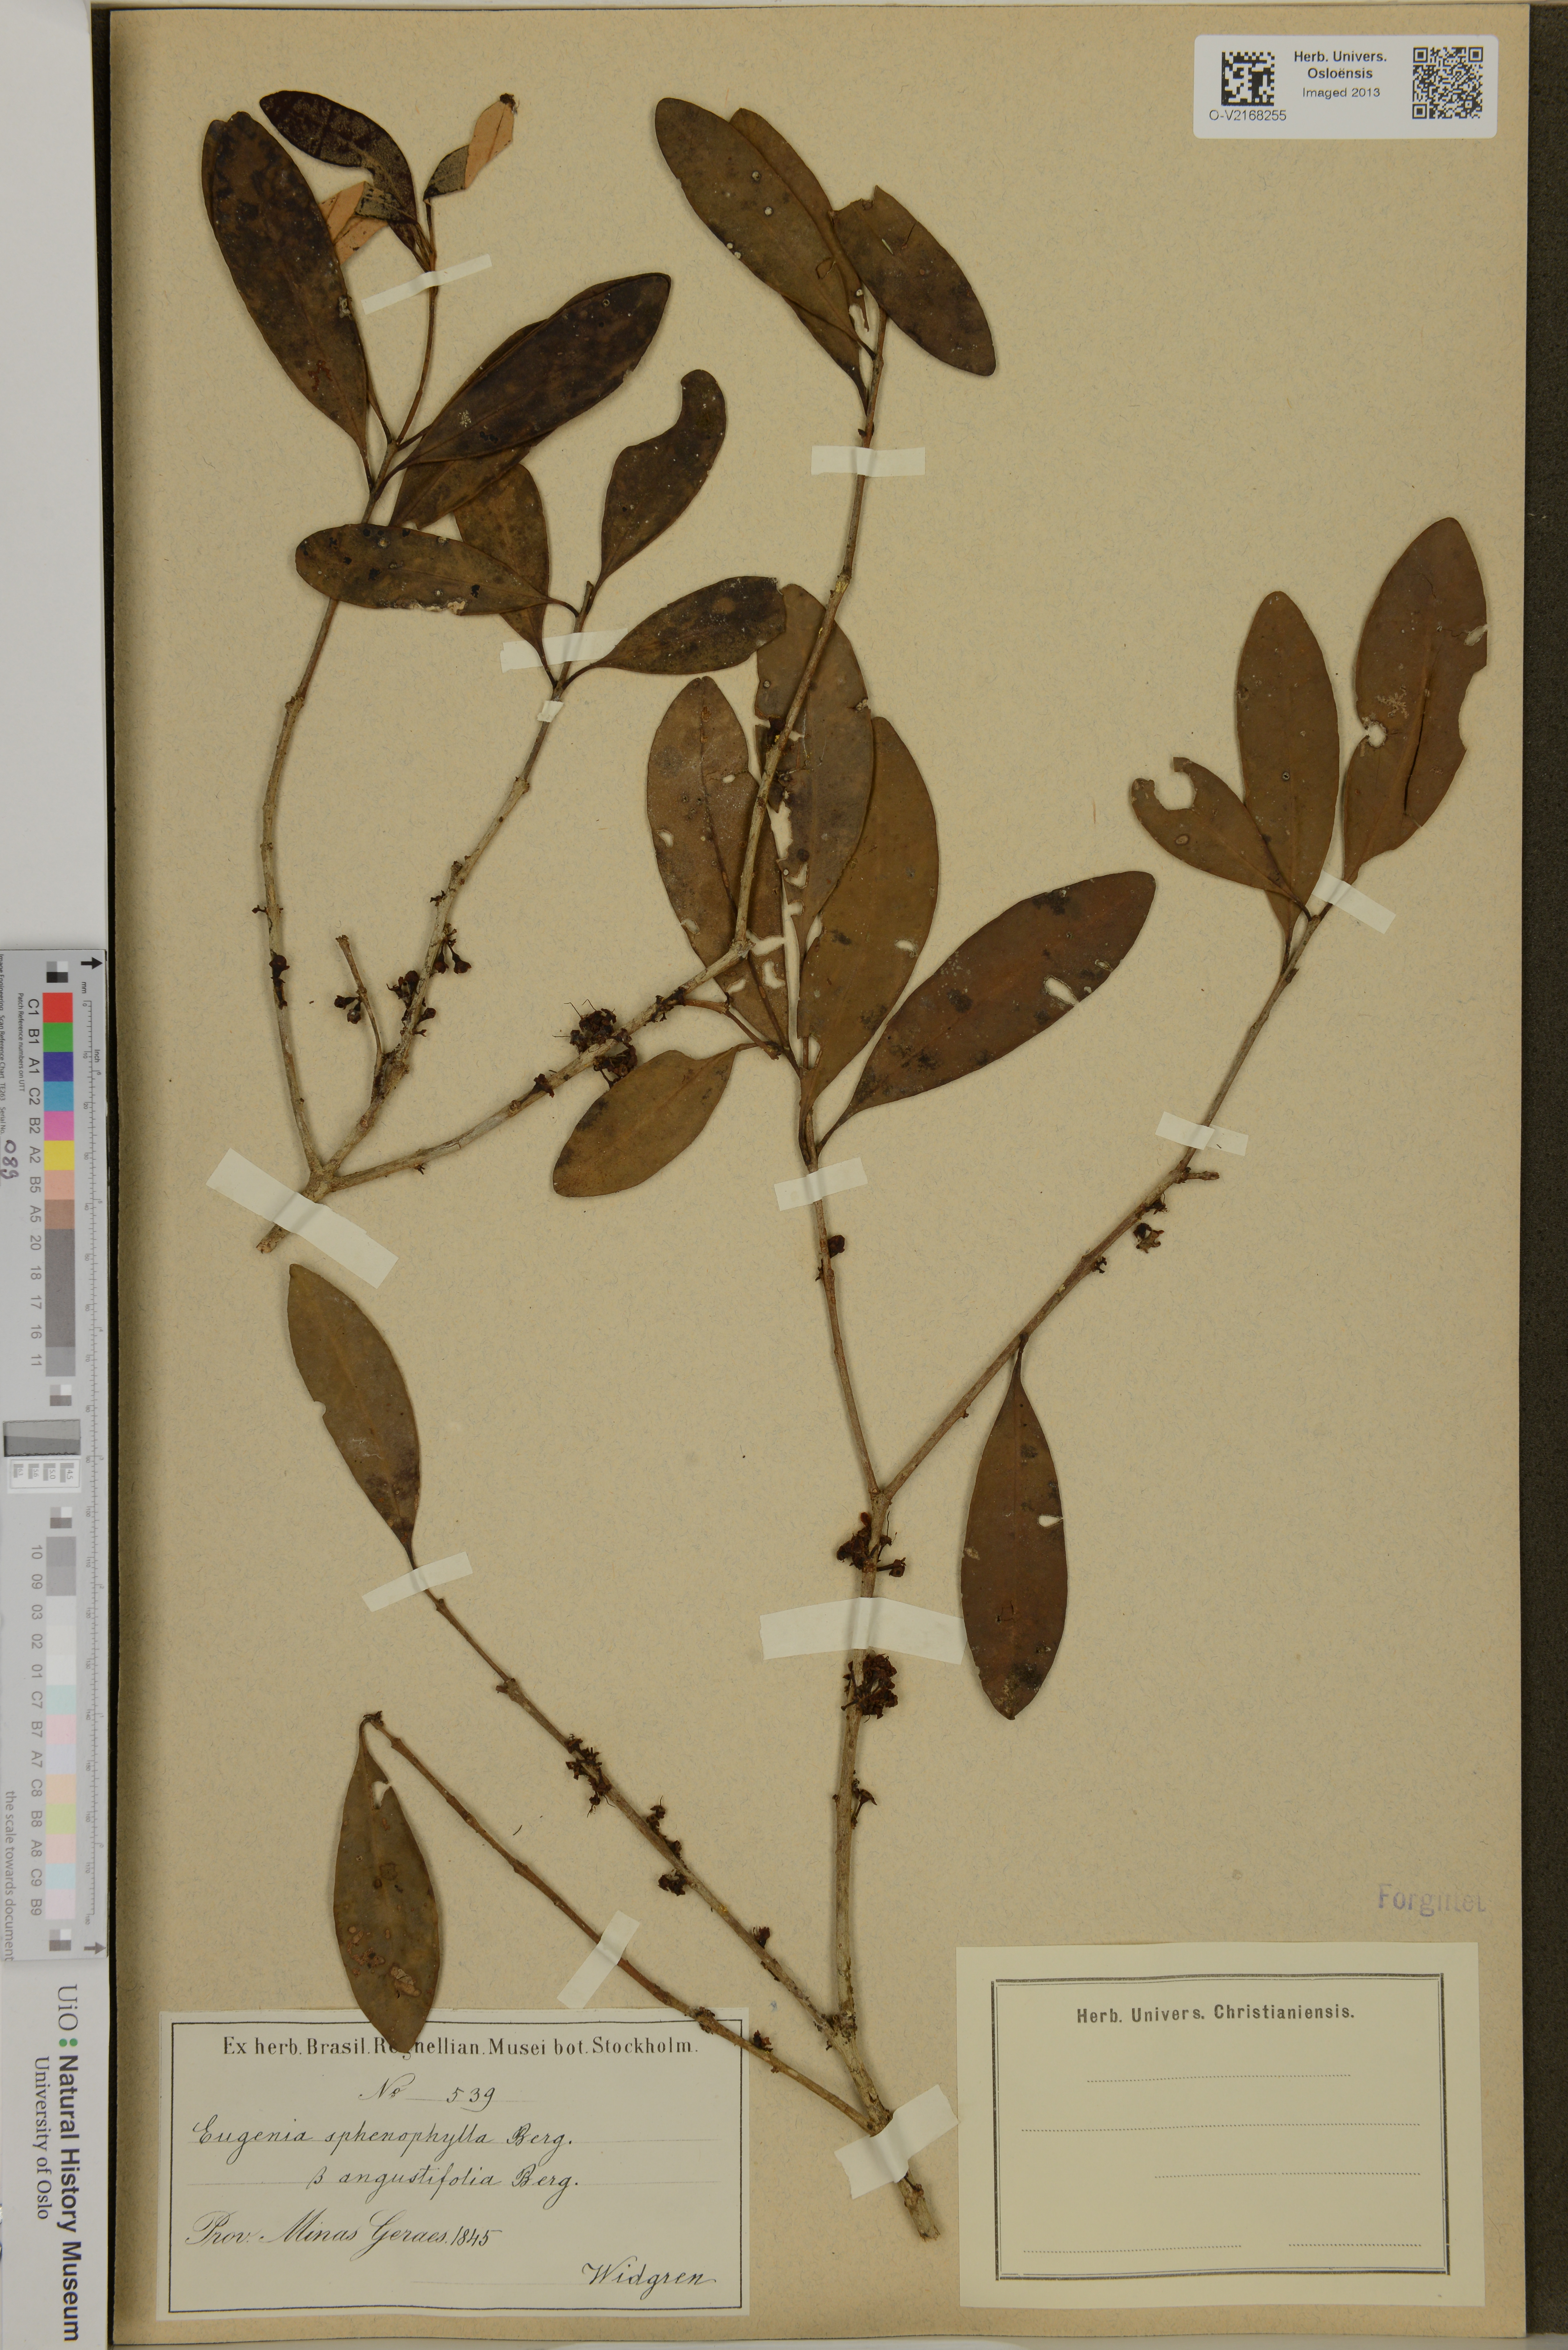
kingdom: Plantae
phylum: Tracheophyta
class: Magnoliopsida
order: Myrtales
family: Myrtaceae
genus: Eugenia
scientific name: Eugenia sphenophylla
